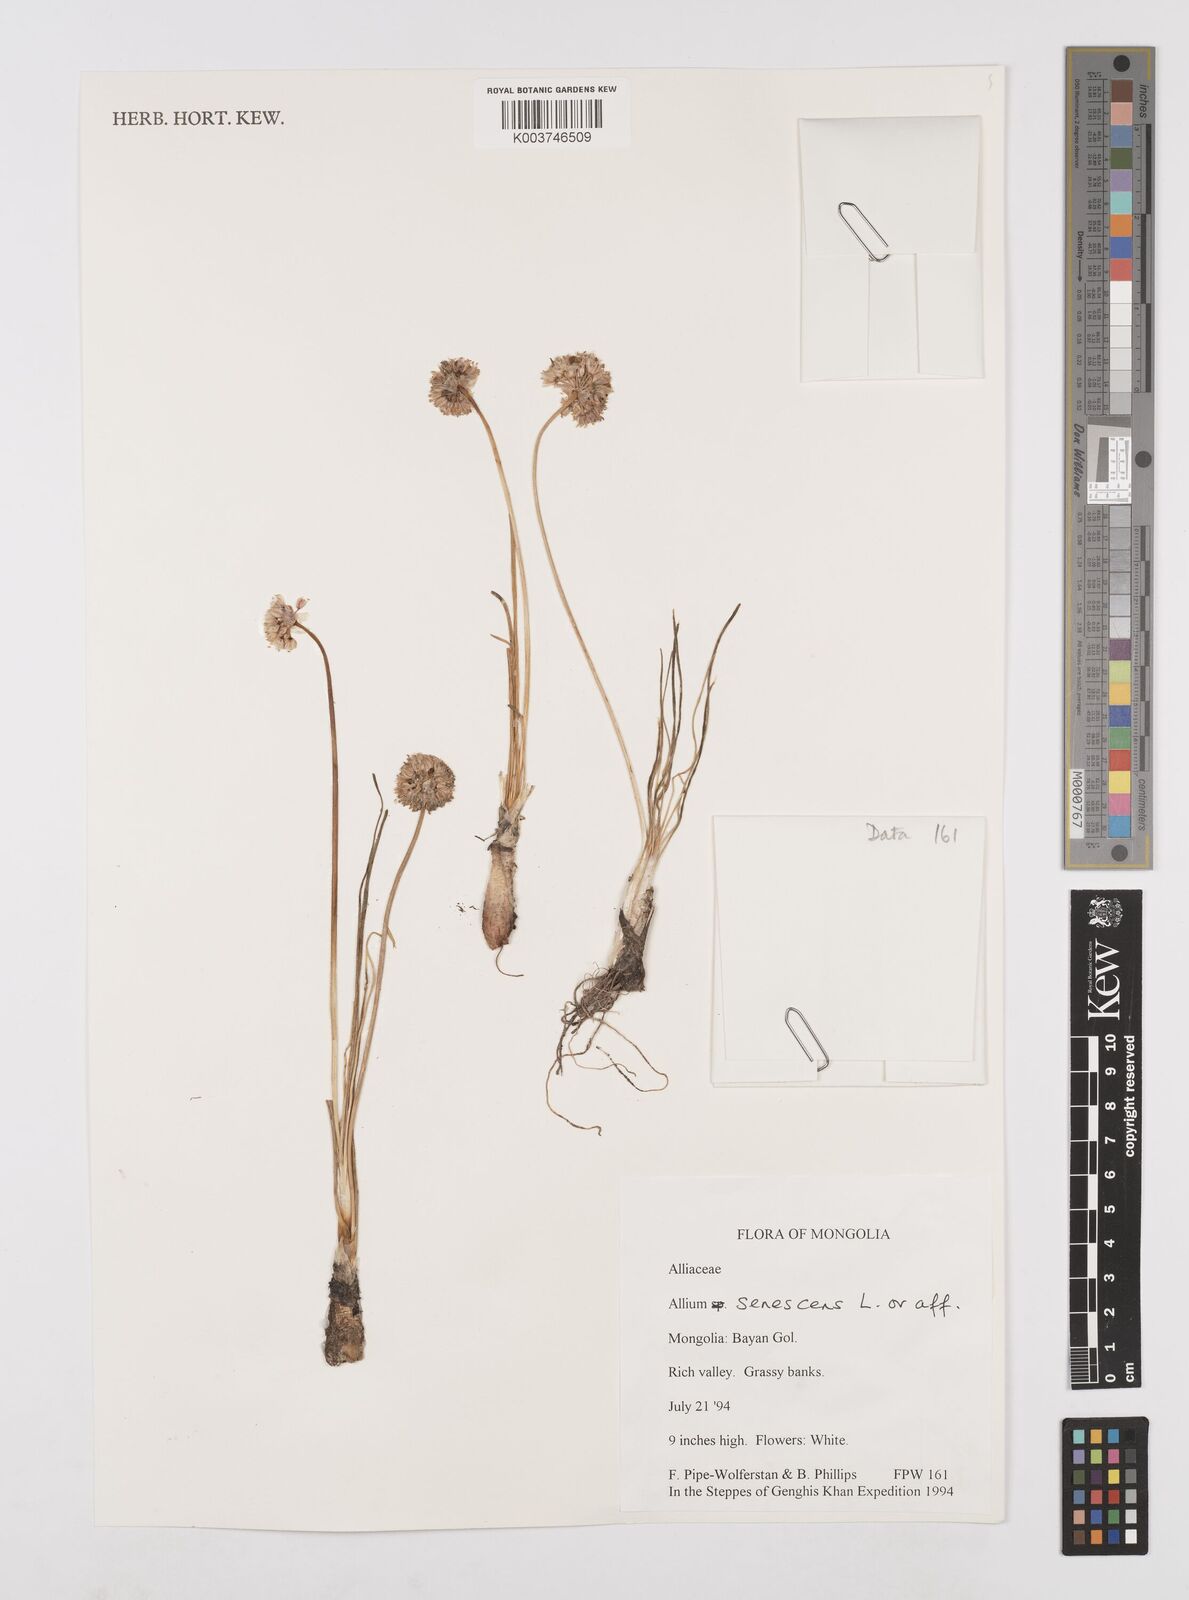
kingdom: Plantae
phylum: Tracheophyta
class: Liliopsida
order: Asparagales
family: Amaryllidaceae
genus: Allium
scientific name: Allium chinense
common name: Japanese scallion
